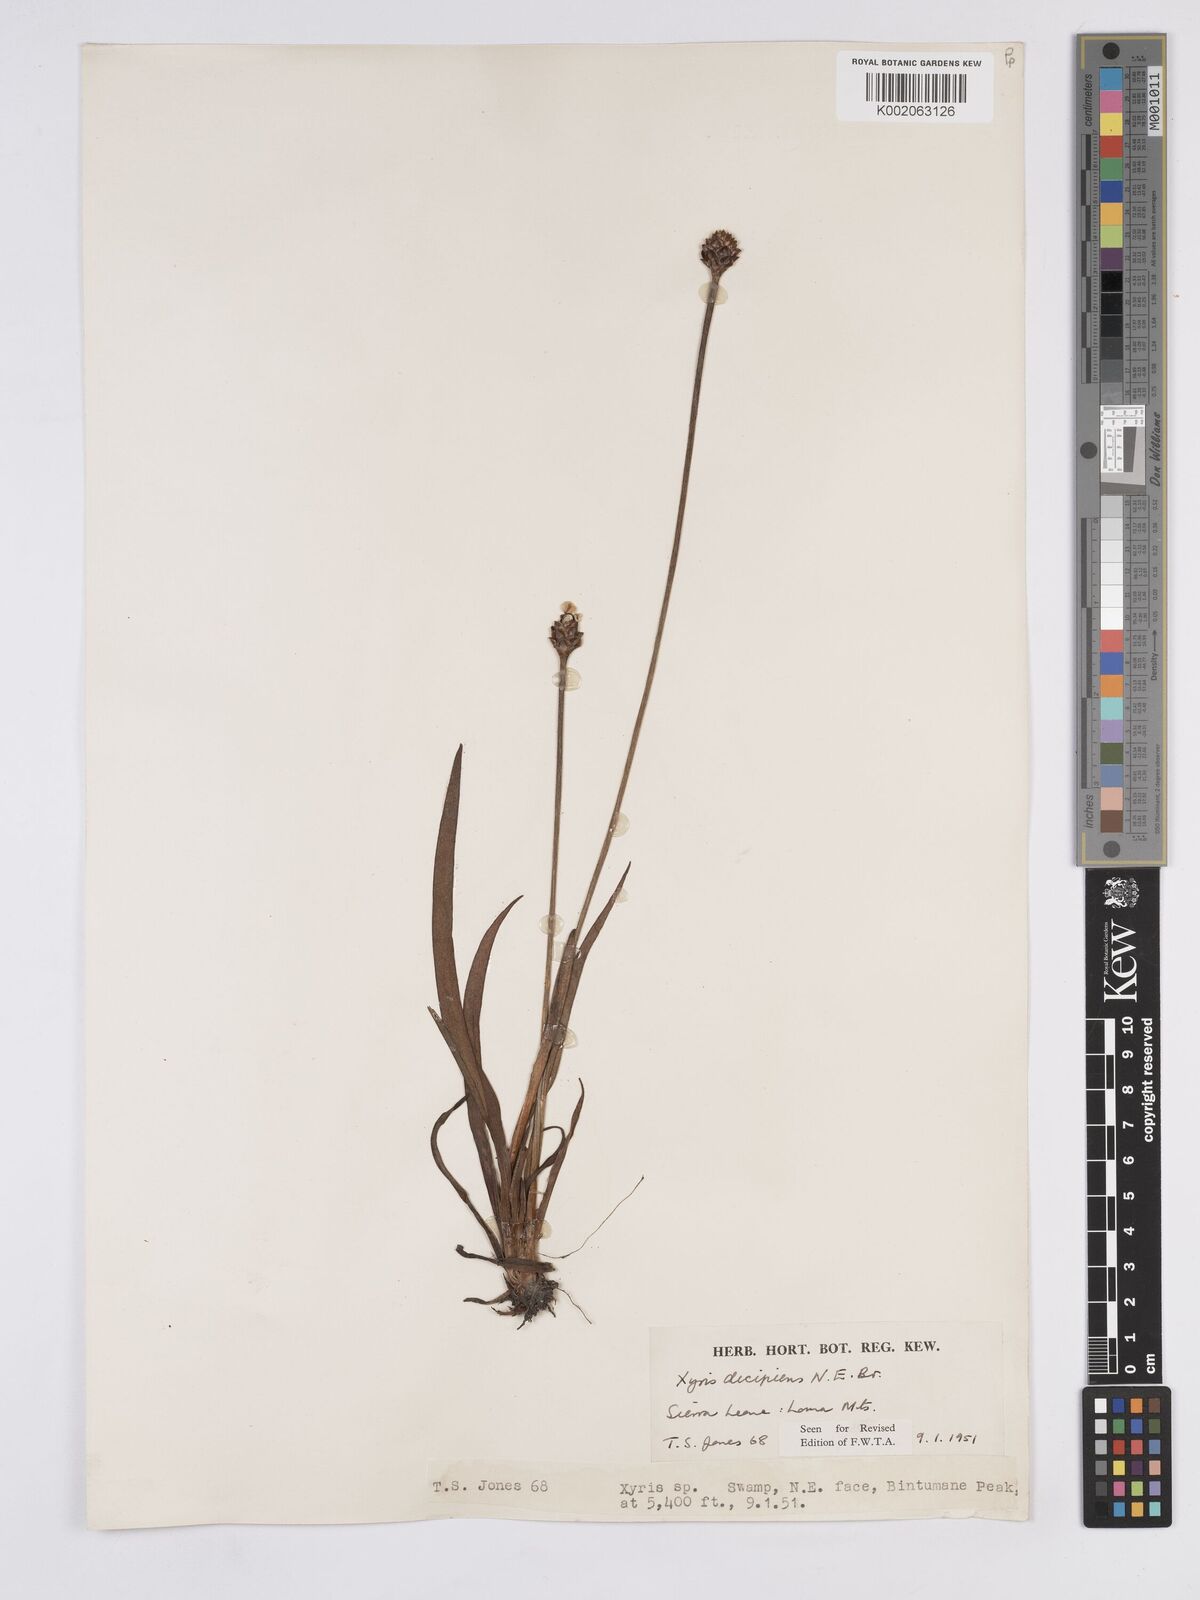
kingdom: Plantae
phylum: Tracheophyta
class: Liliopsida
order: Poales
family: Xyridaceae
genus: Xyris
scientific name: Xyris decipiens
